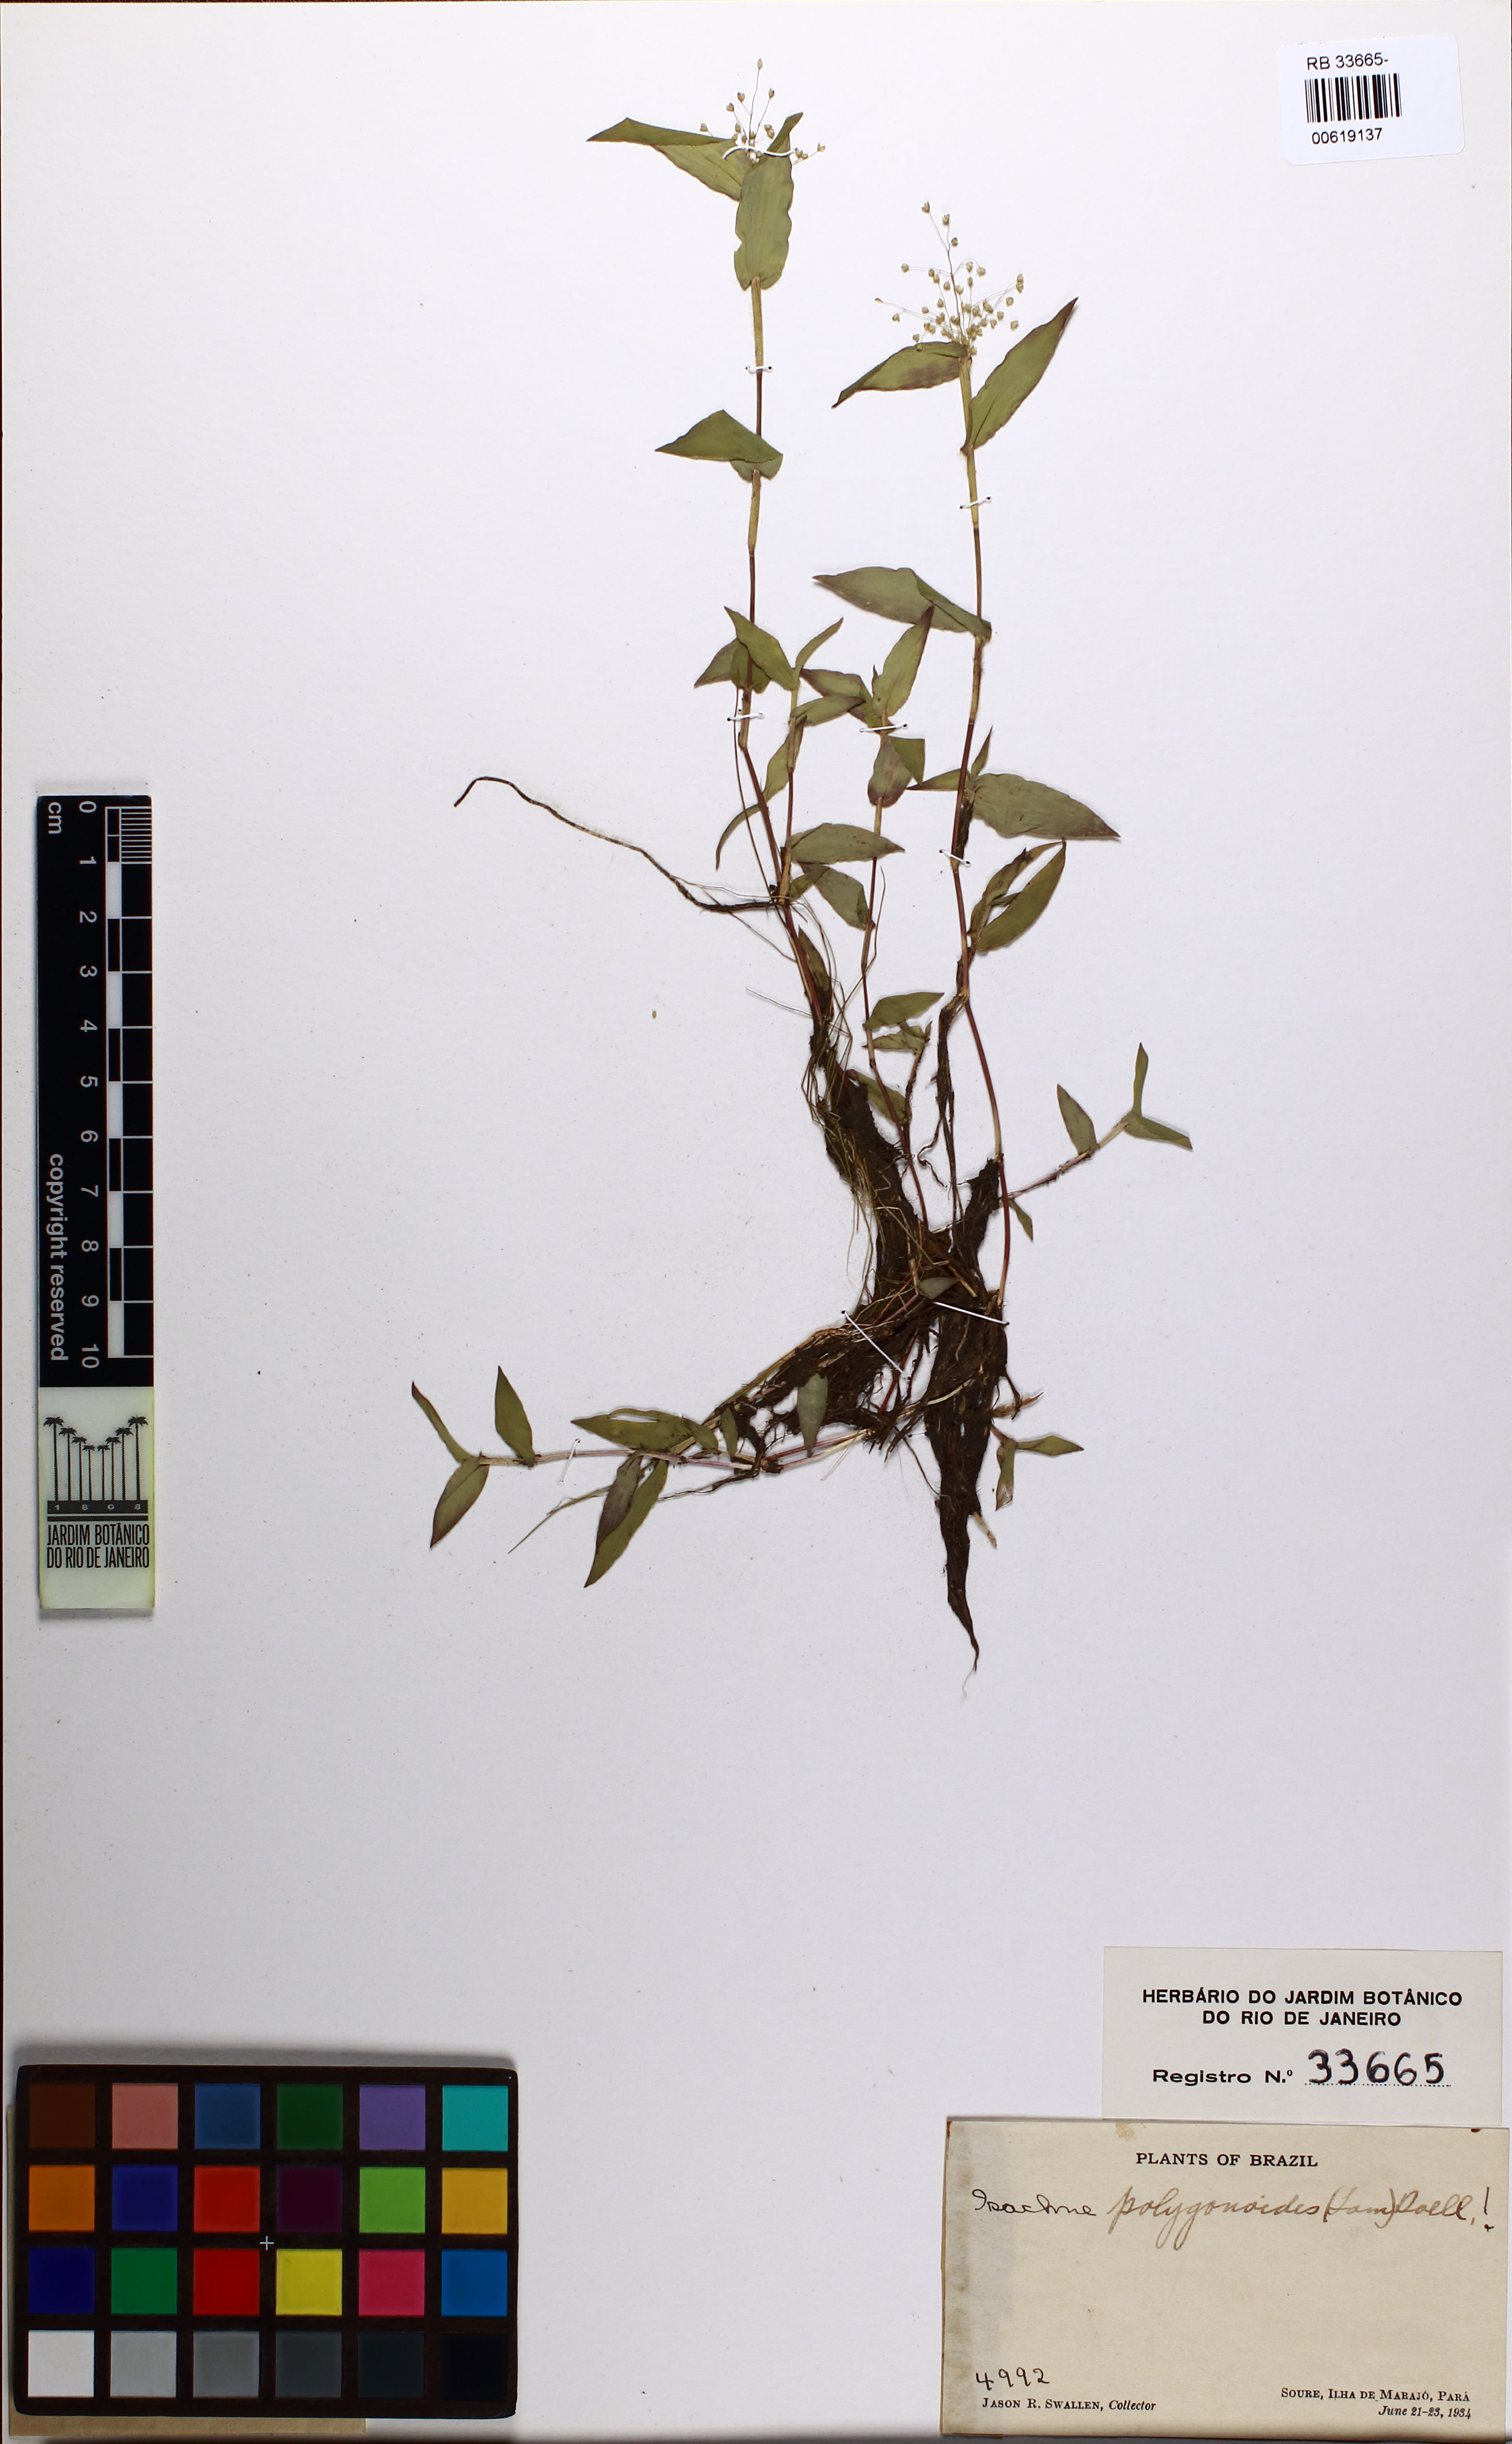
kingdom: Plantae
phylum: Tracheophyta
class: Liliopsida
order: Poales
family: Poaceae
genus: Isachne
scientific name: Isachne polygonoides
